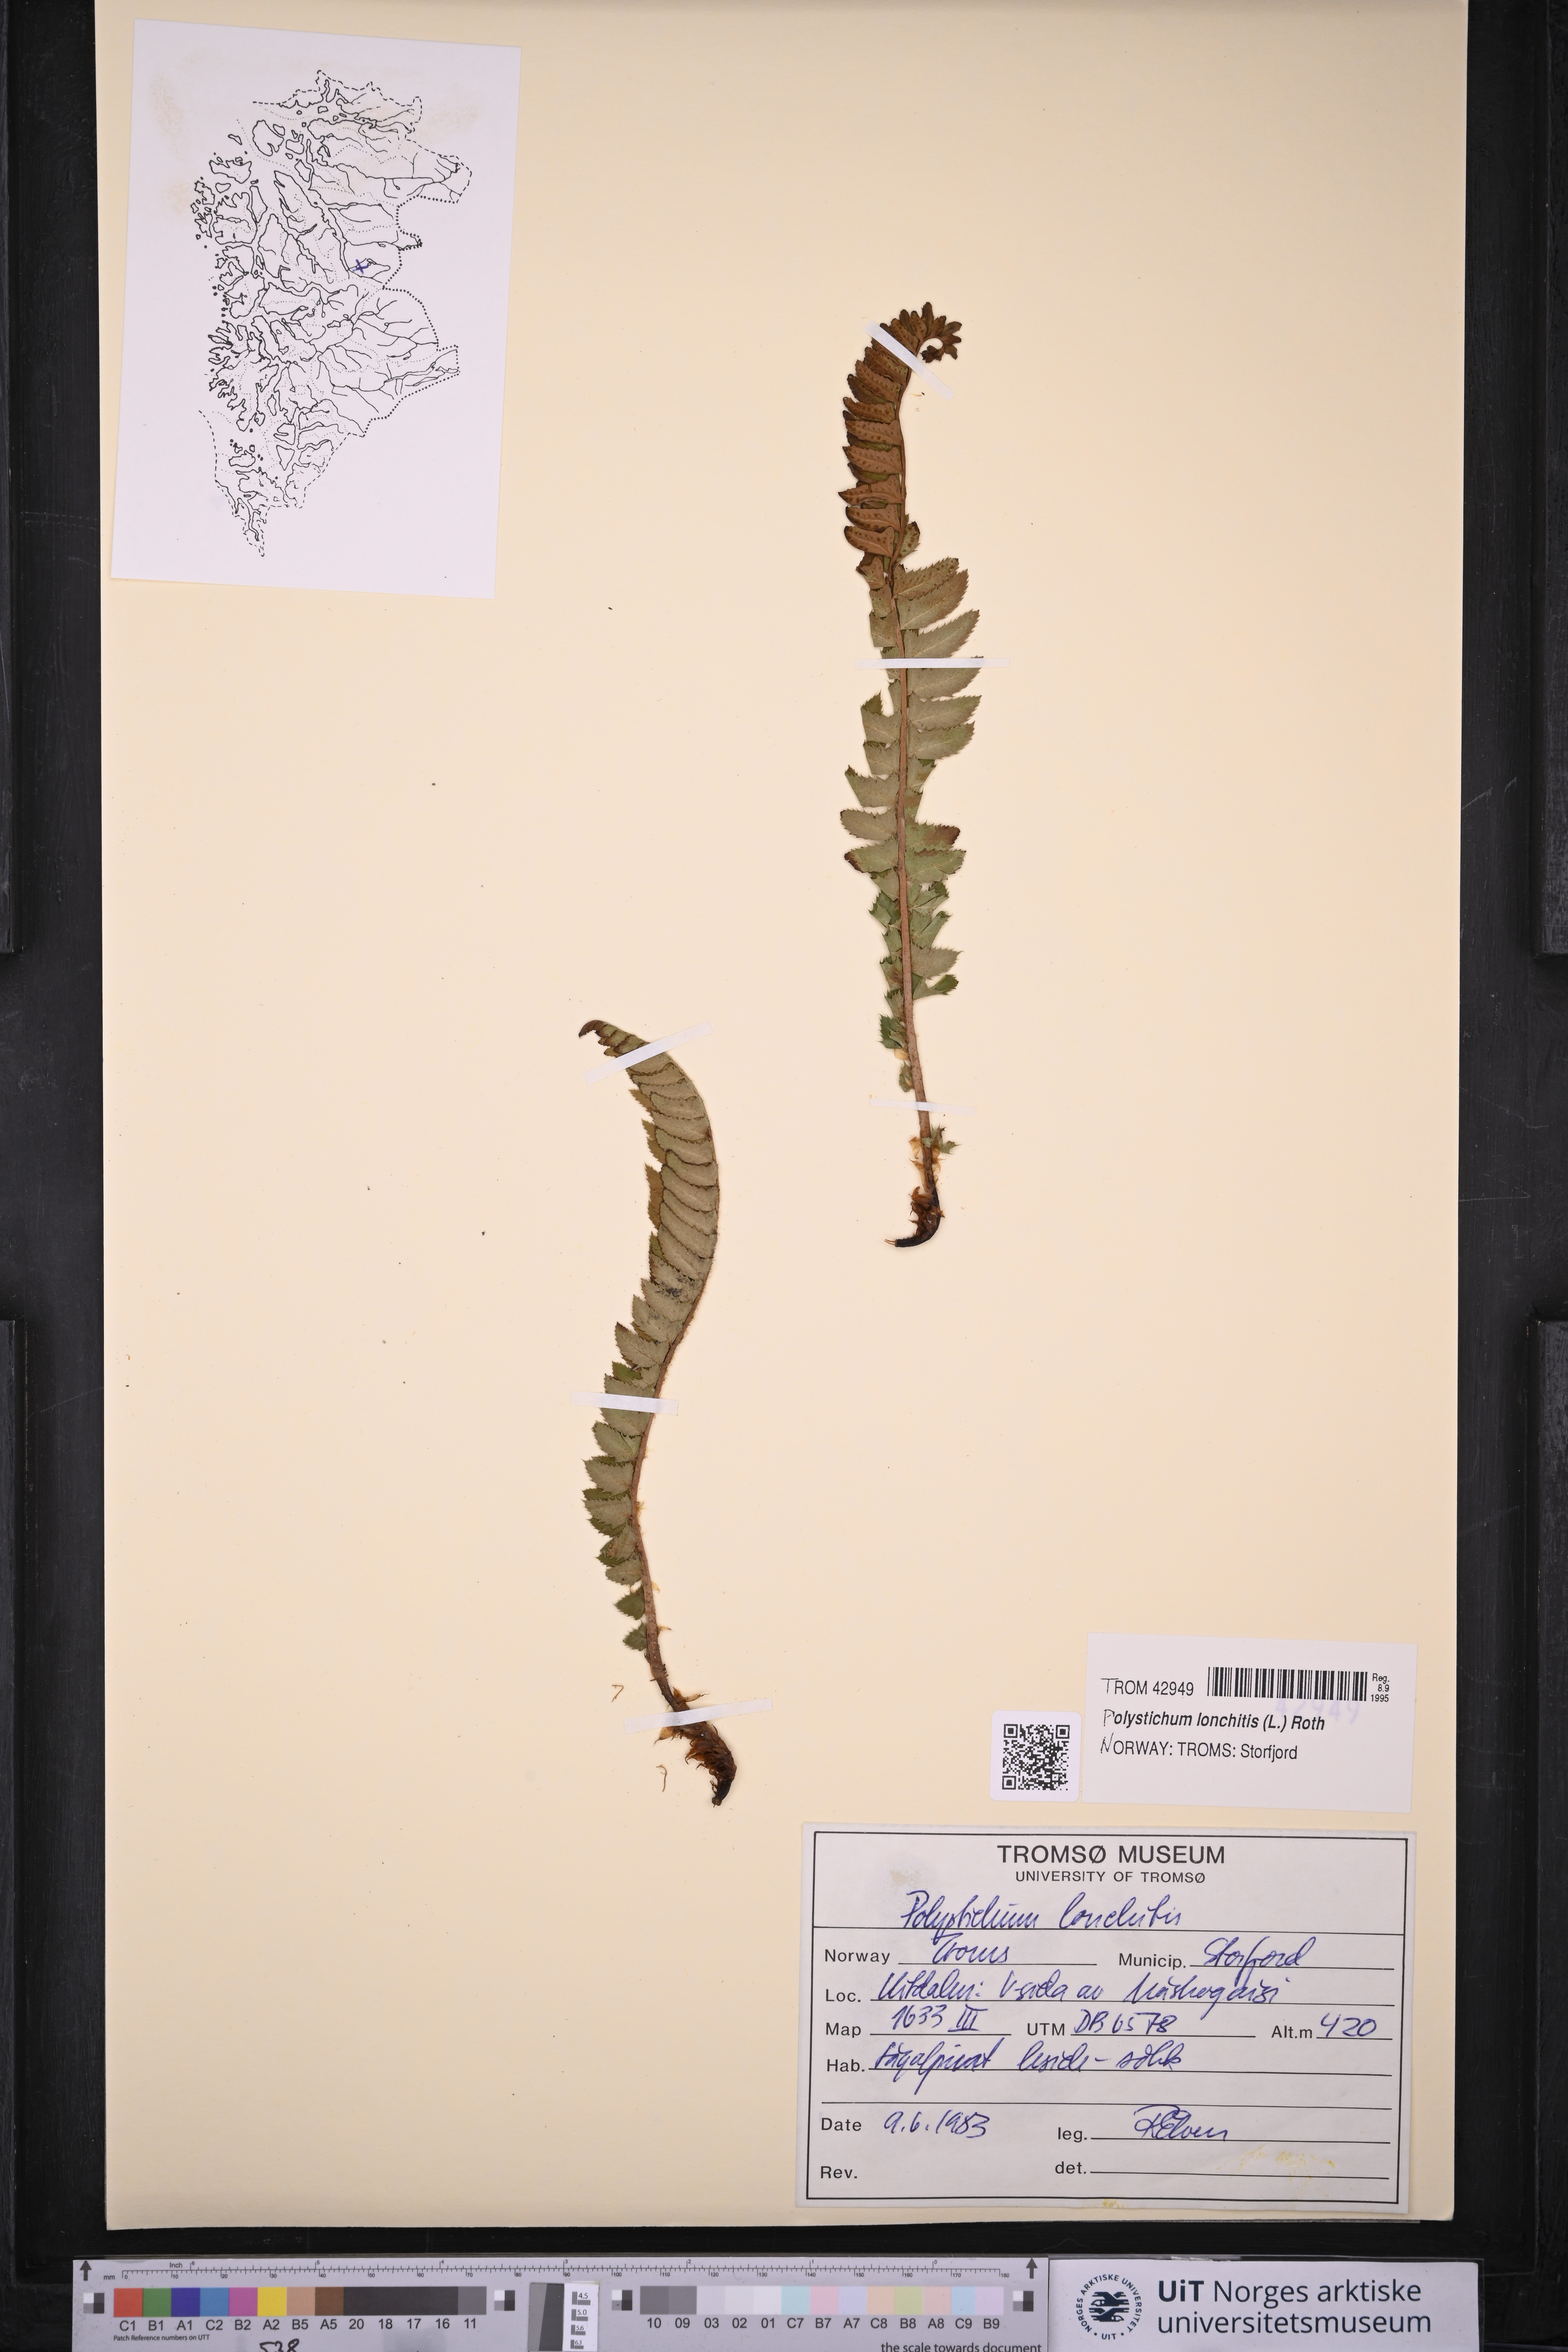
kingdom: Plantae
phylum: Tracheophyta
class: Polypodiopsida
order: Polypodiales
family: Dryopteridaceae
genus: Polystichum
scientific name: Polystichum lonchitis
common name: Holly fern
